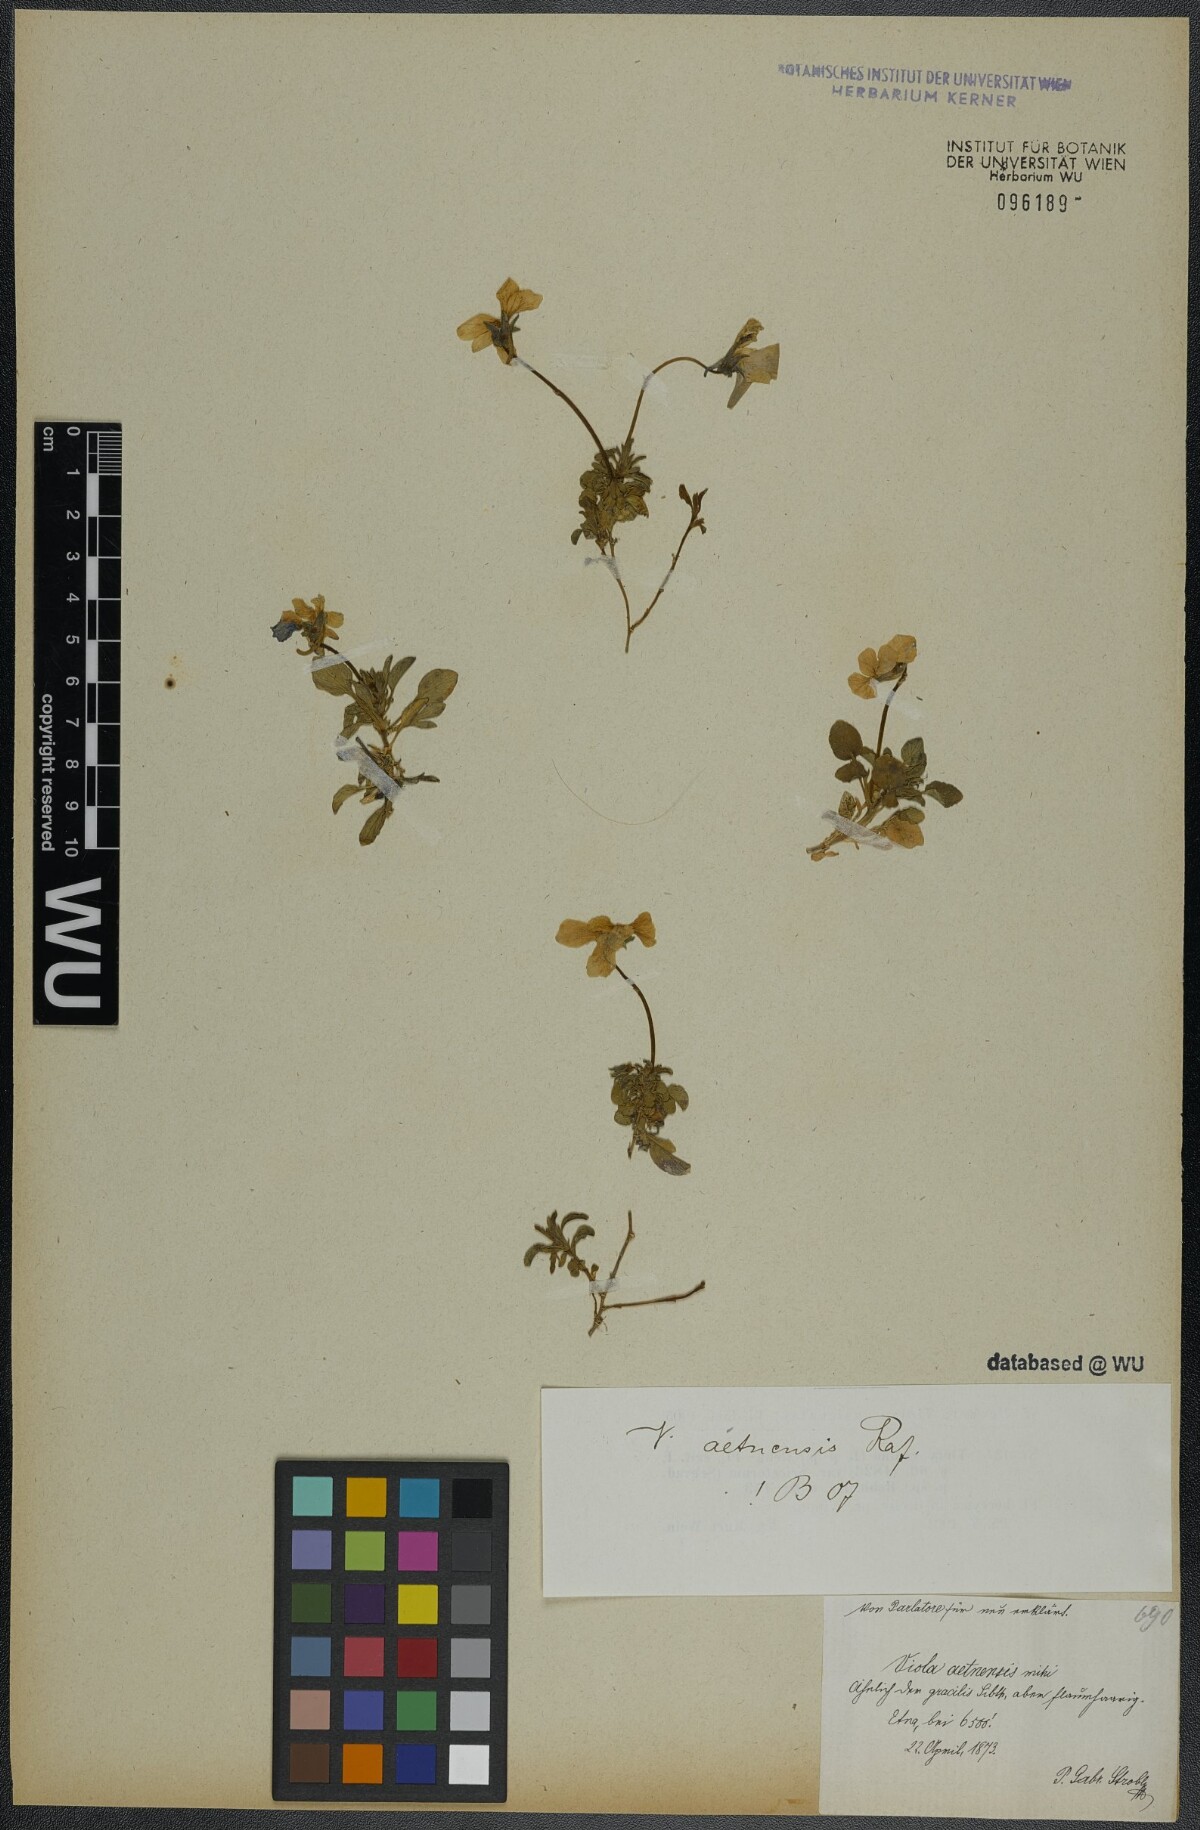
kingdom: Plantae
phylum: Tracheophyta
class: Magnoliopsida
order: Malpighiales
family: Violaceae
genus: Viola
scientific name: Viola aethnensis
